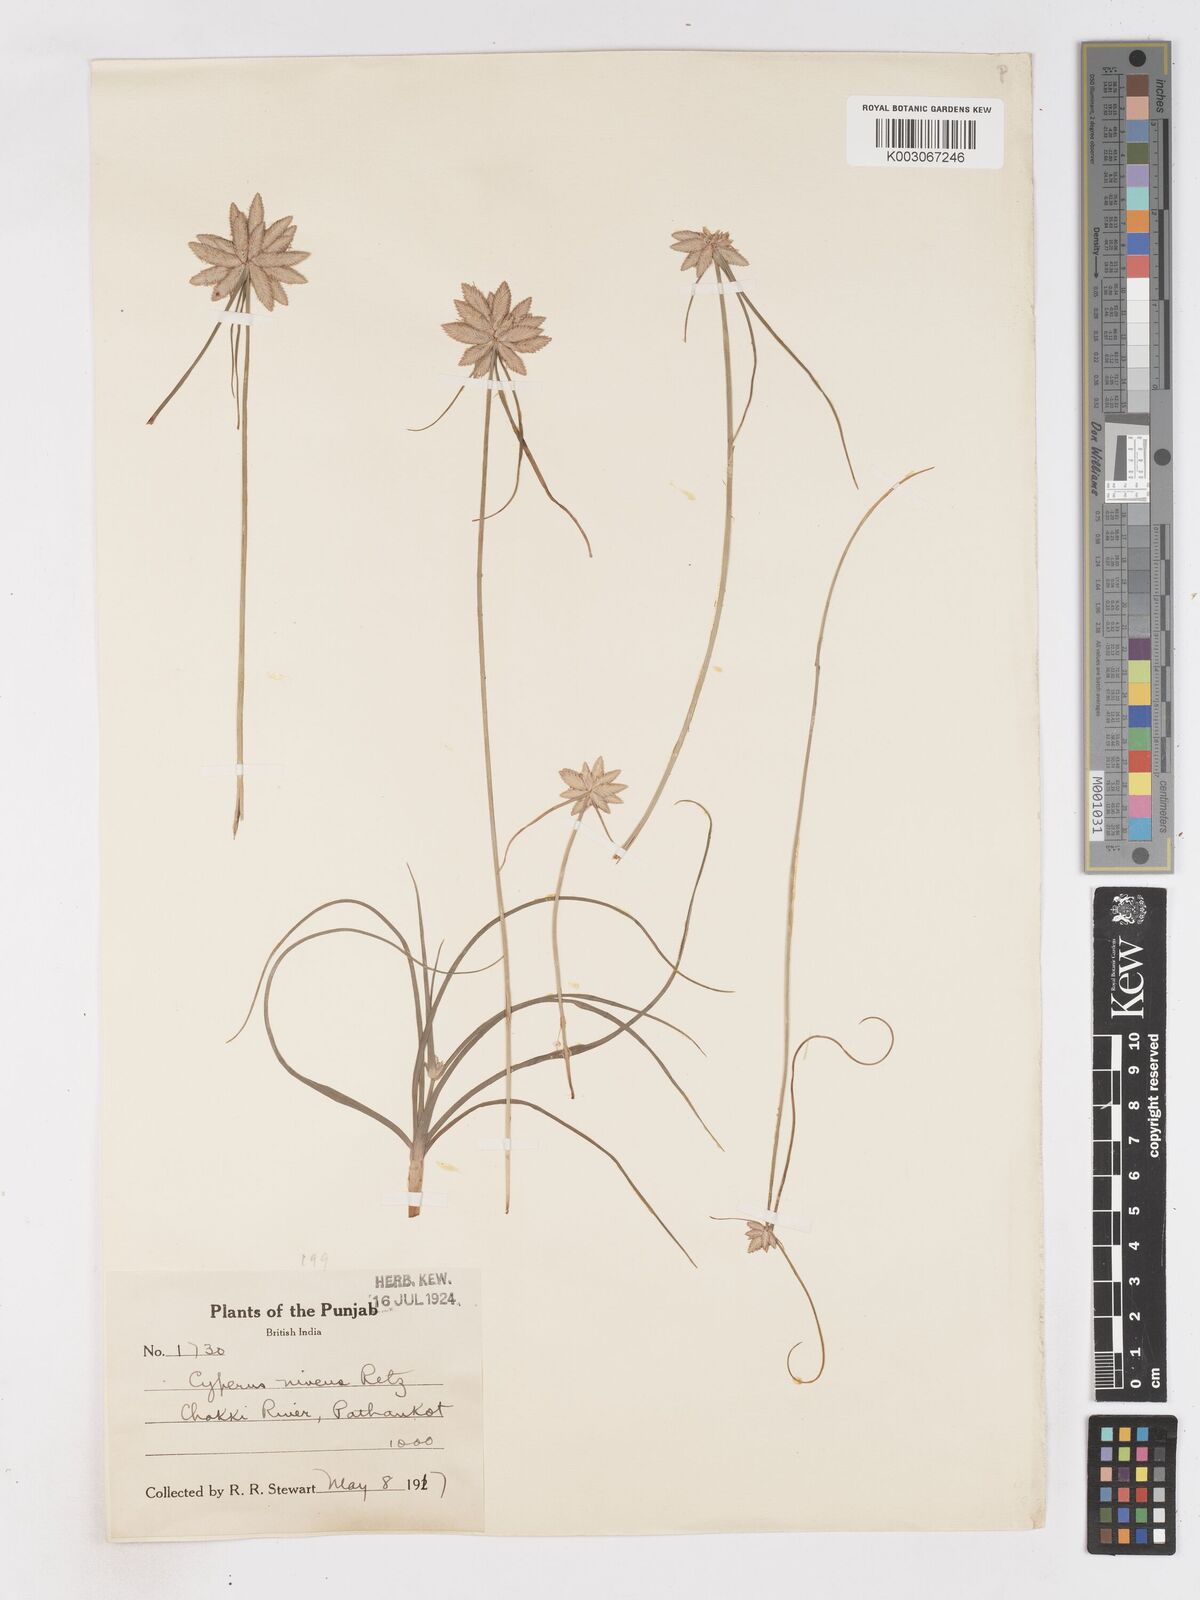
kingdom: Plantae
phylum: Tracheophyta
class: Liliopsida
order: Poales
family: Cyperaceae
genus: Cyperus
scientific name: Cyperus niveus
